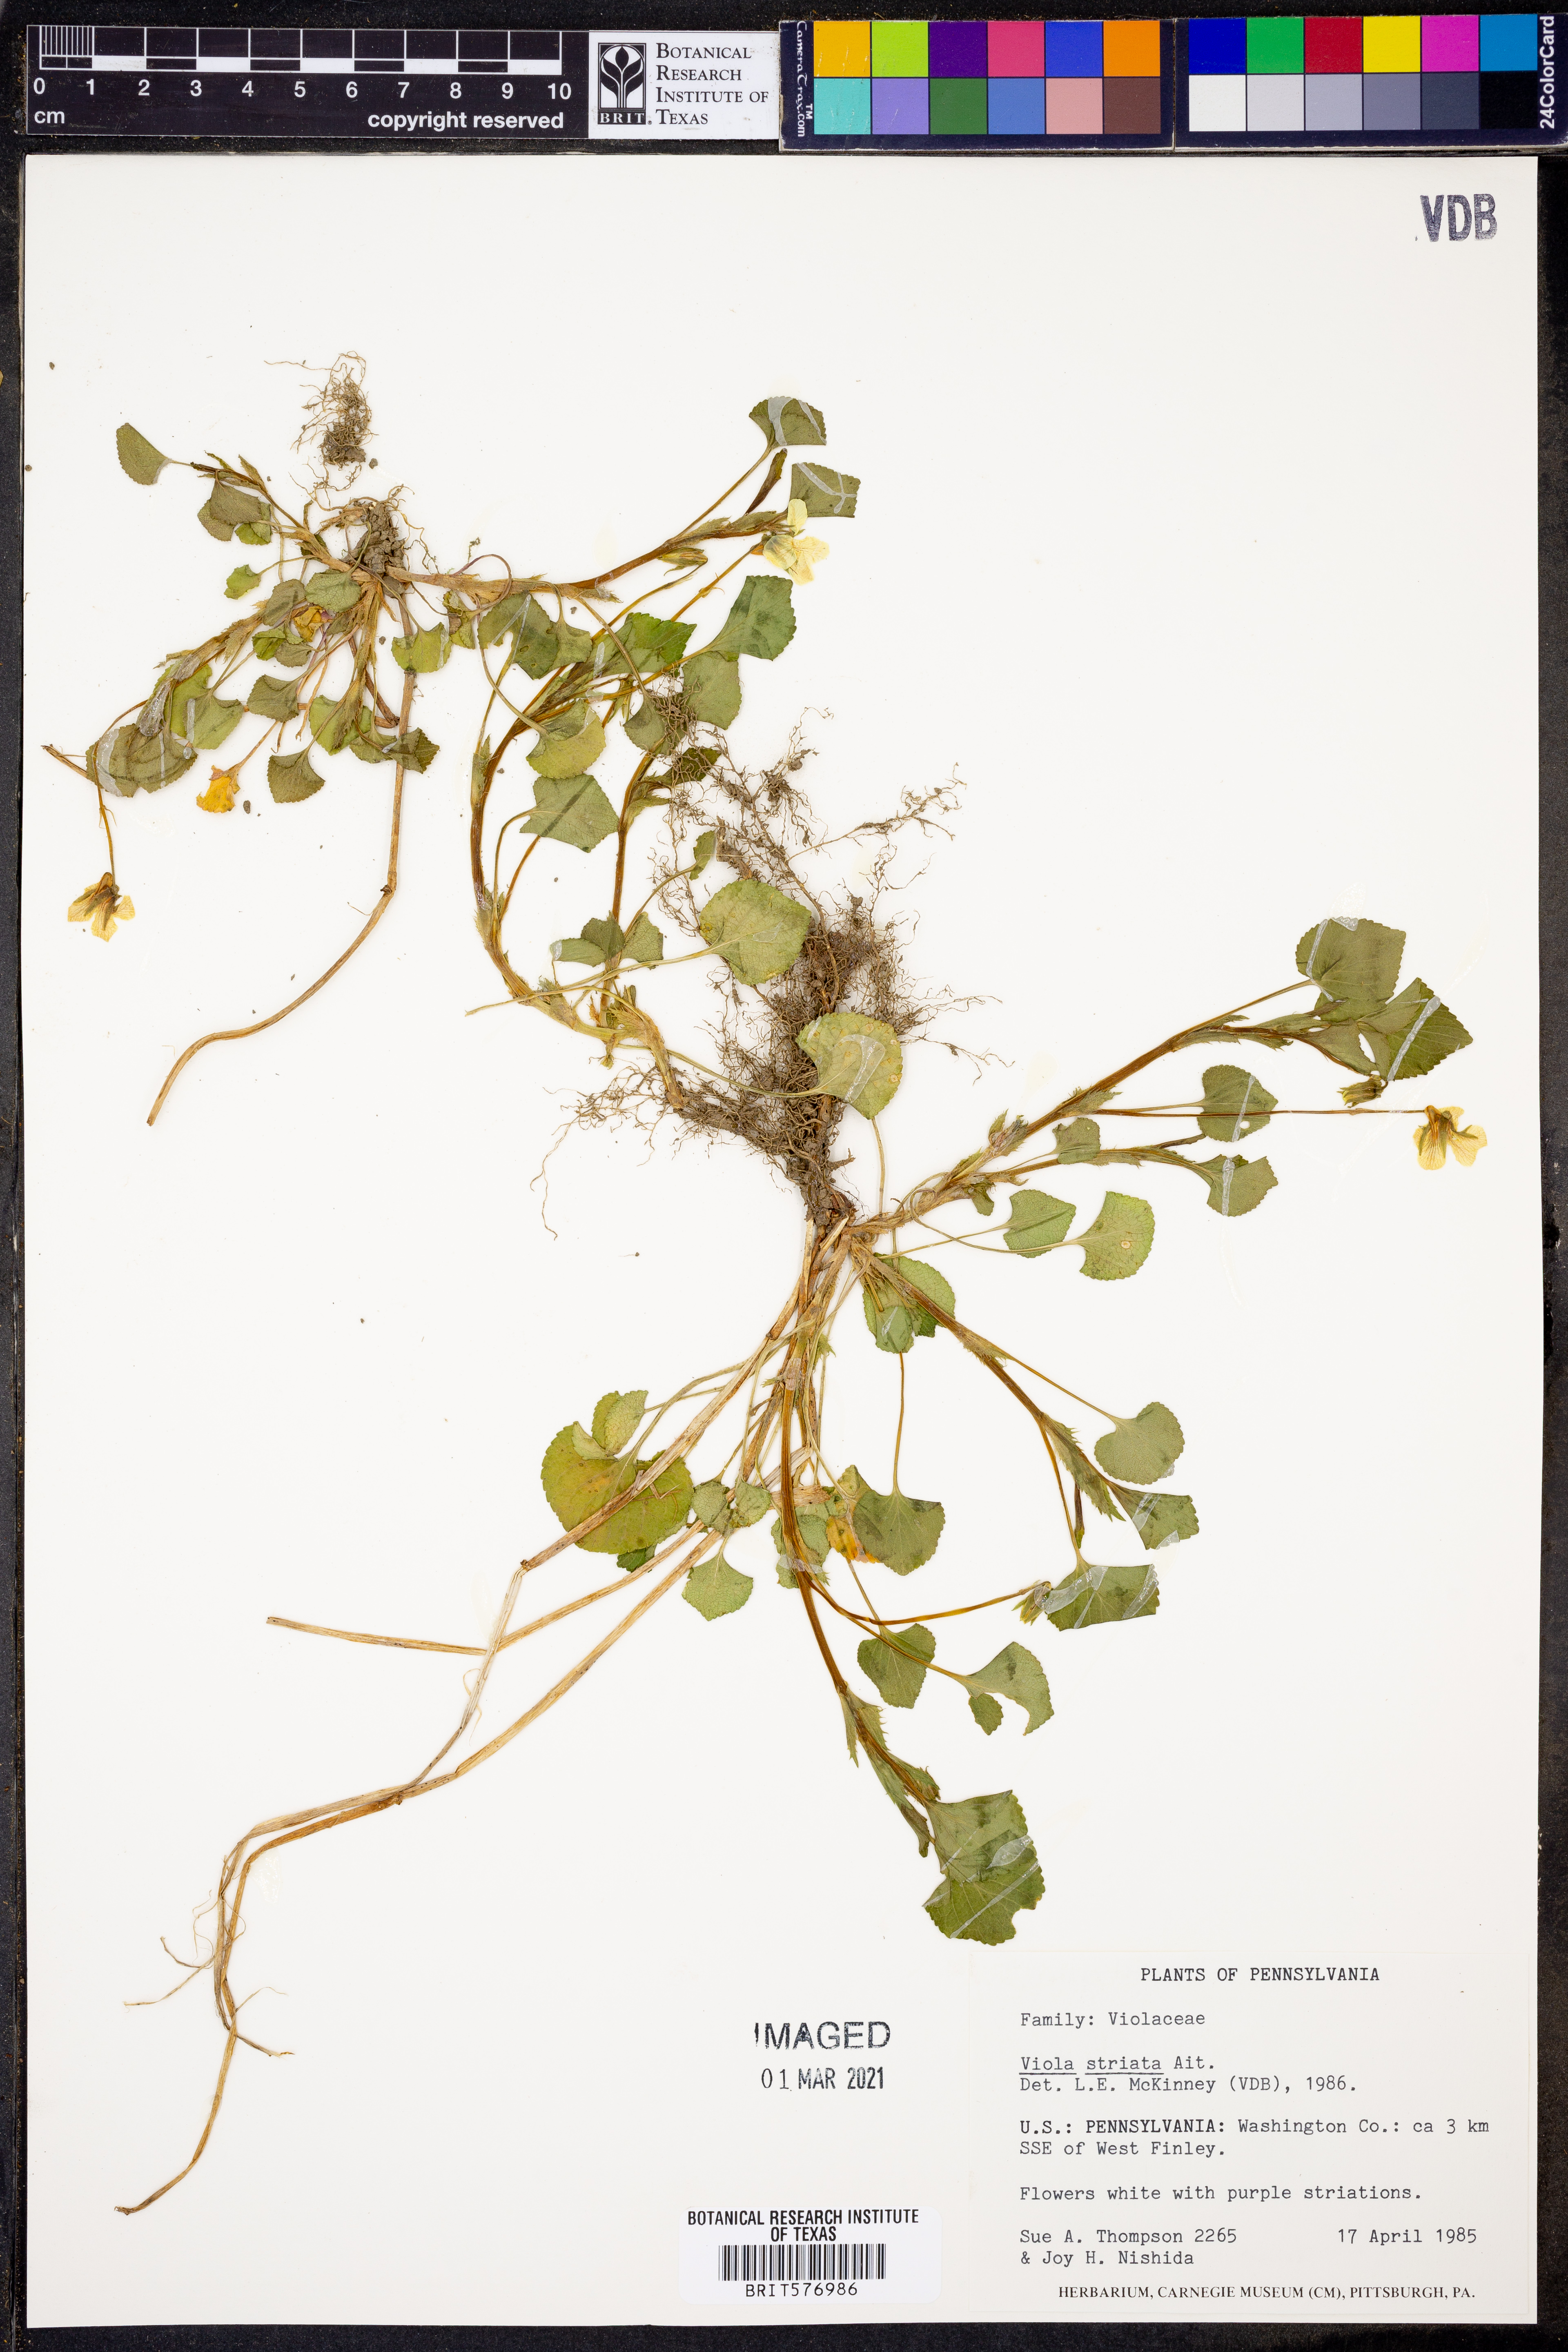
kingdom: Plantae
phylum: Tracheophyta
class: Magnoliopsida
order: Malpighiales
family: Violaceae
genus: Viola
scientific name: Viola striata
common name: Cream violet
